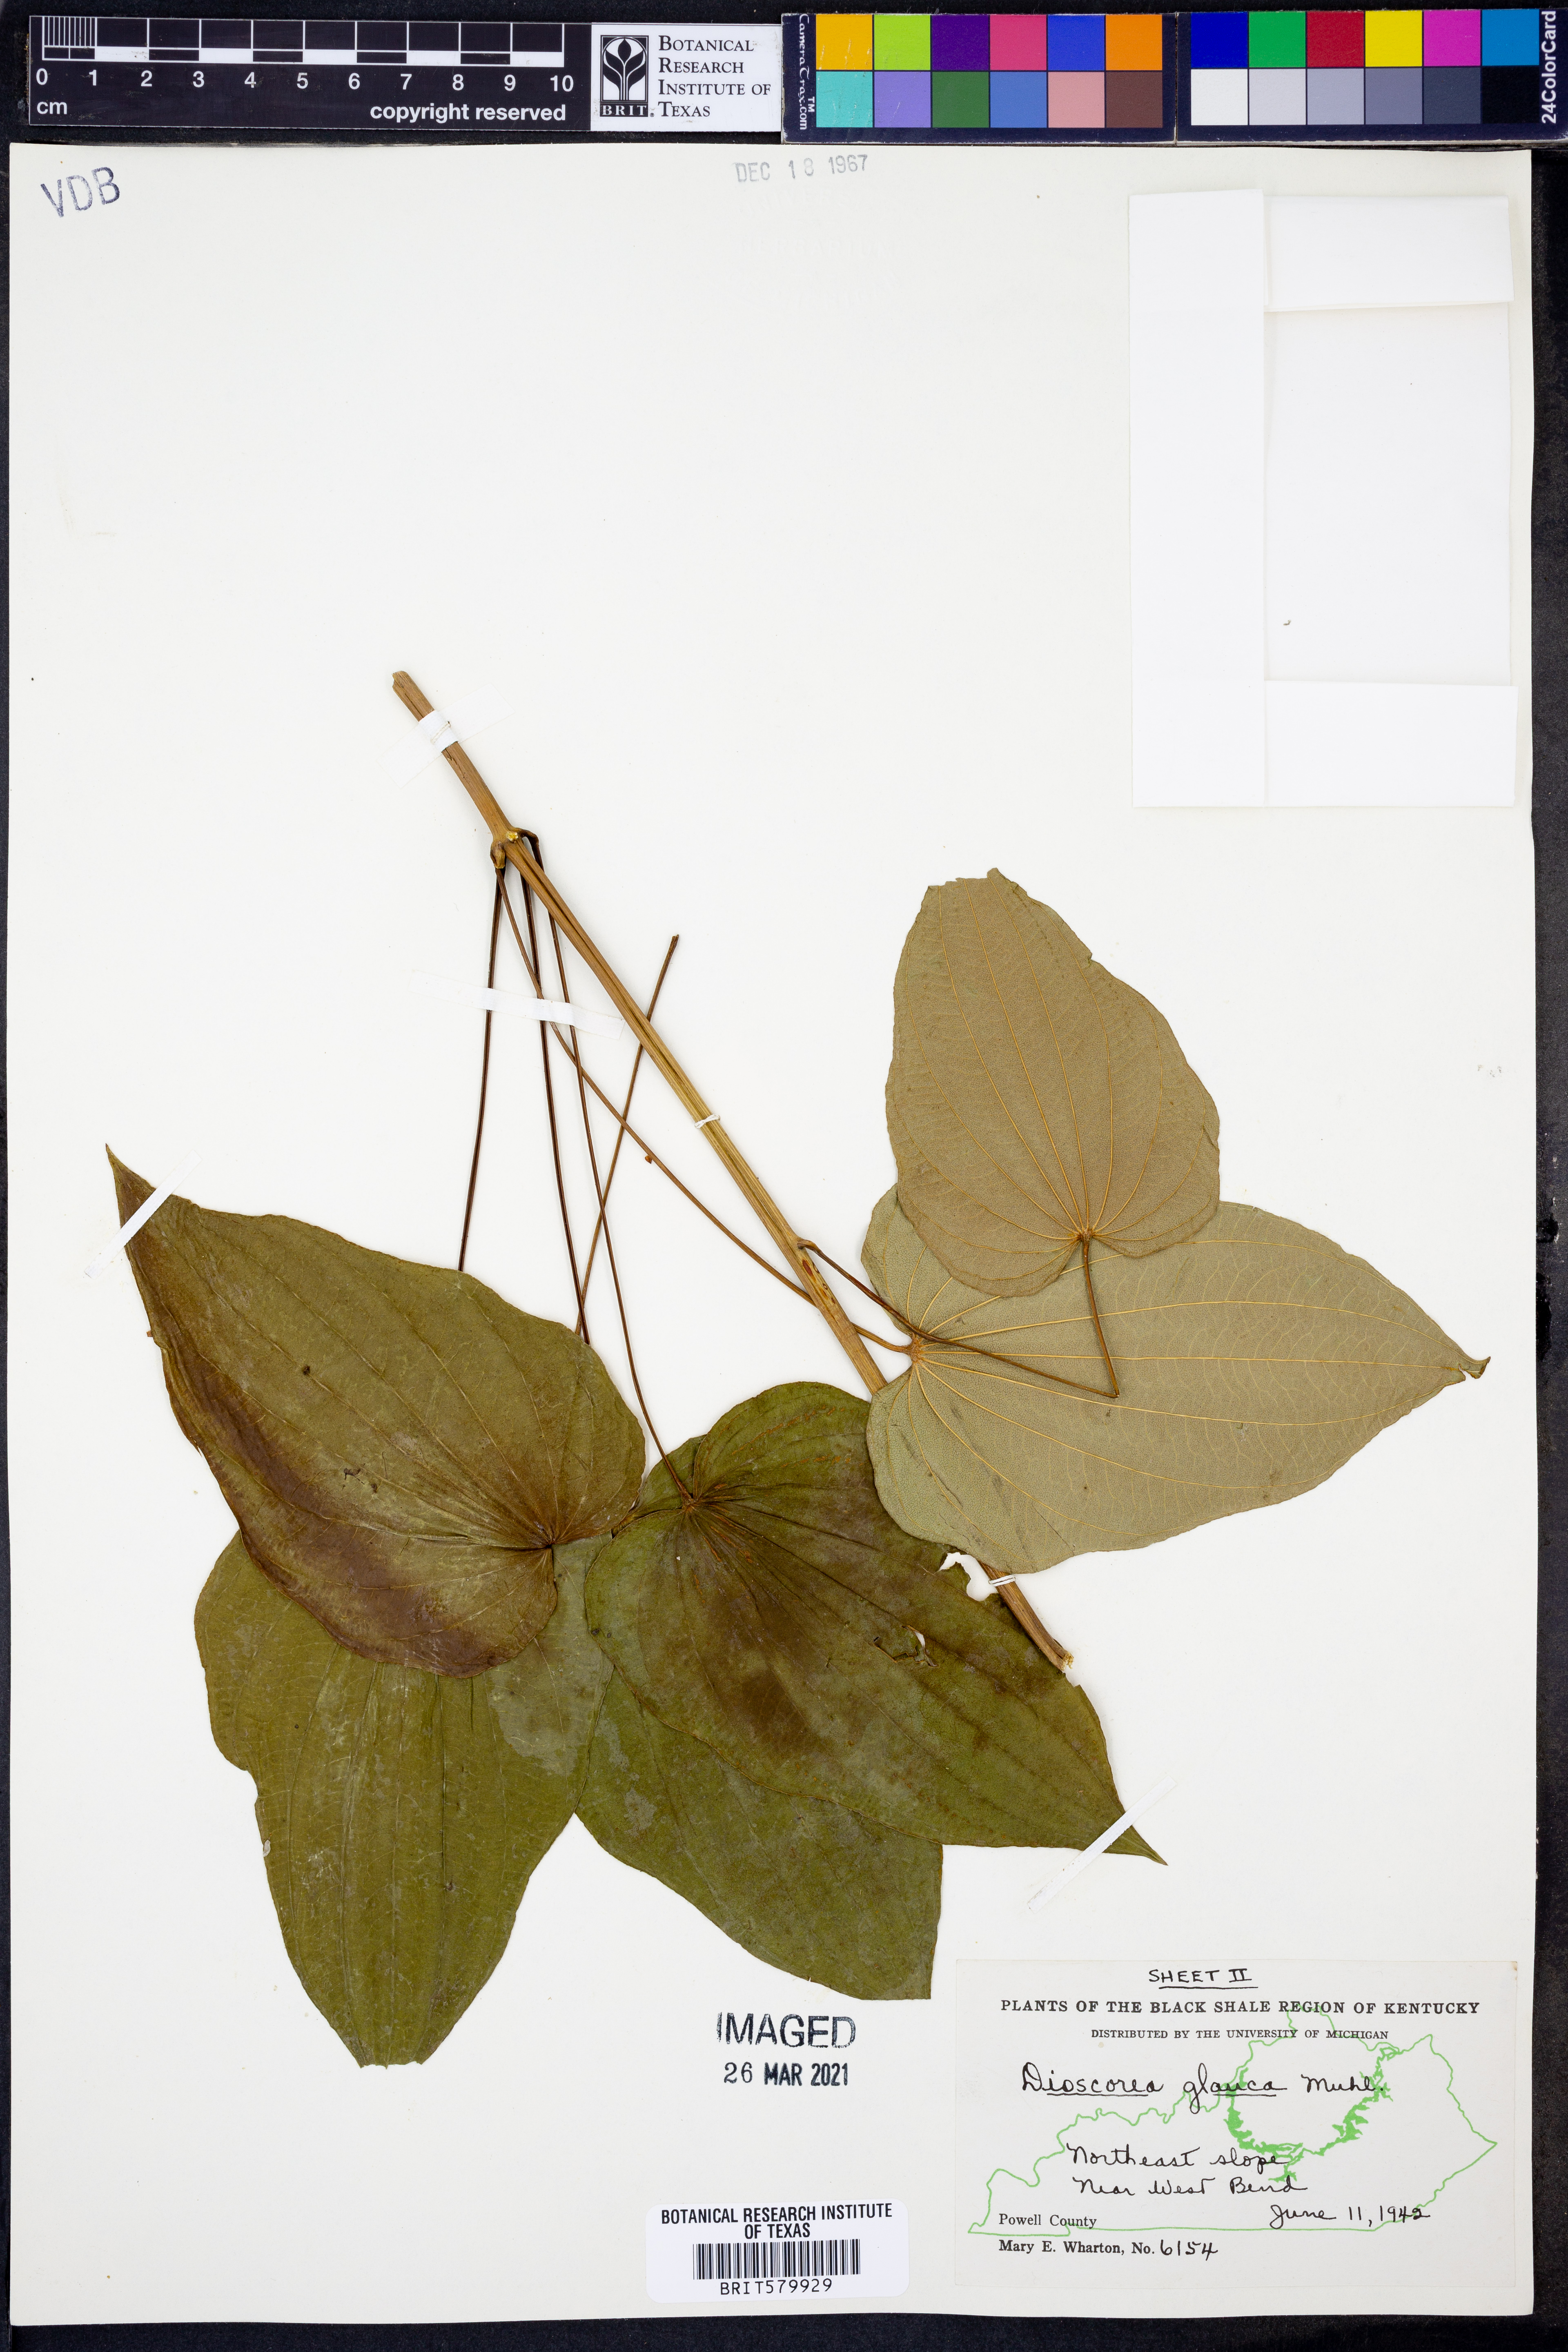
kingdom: Plantae
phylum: Tracheophyta
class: Liliopsida
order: Dioscoreales
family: Dioscoreaceae
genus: Dioscorea
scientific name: Dioscorea villosa
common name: Wild yam
